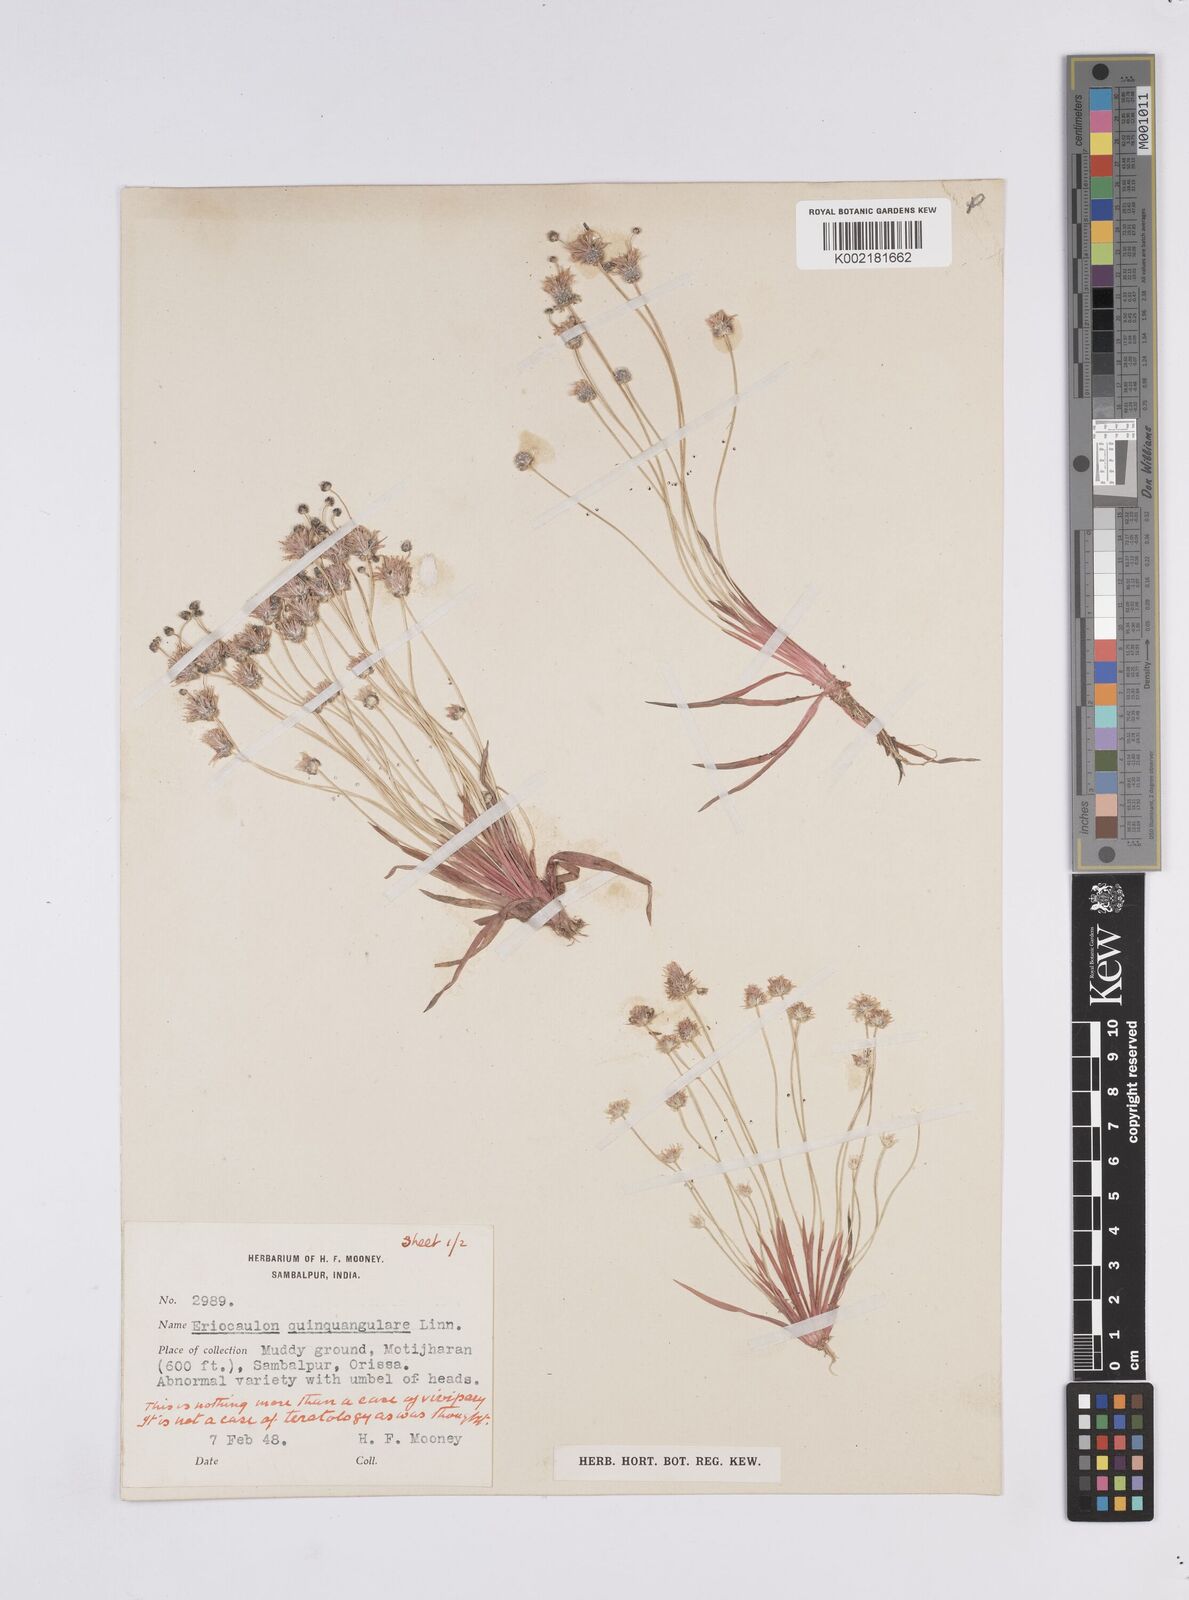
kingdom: Plantae
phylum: Tracheophyta
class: Liliopsida
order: Poales
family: Eriocaulaceae
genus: Eriocaulon
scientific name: Eriocaulon quinquangulare
